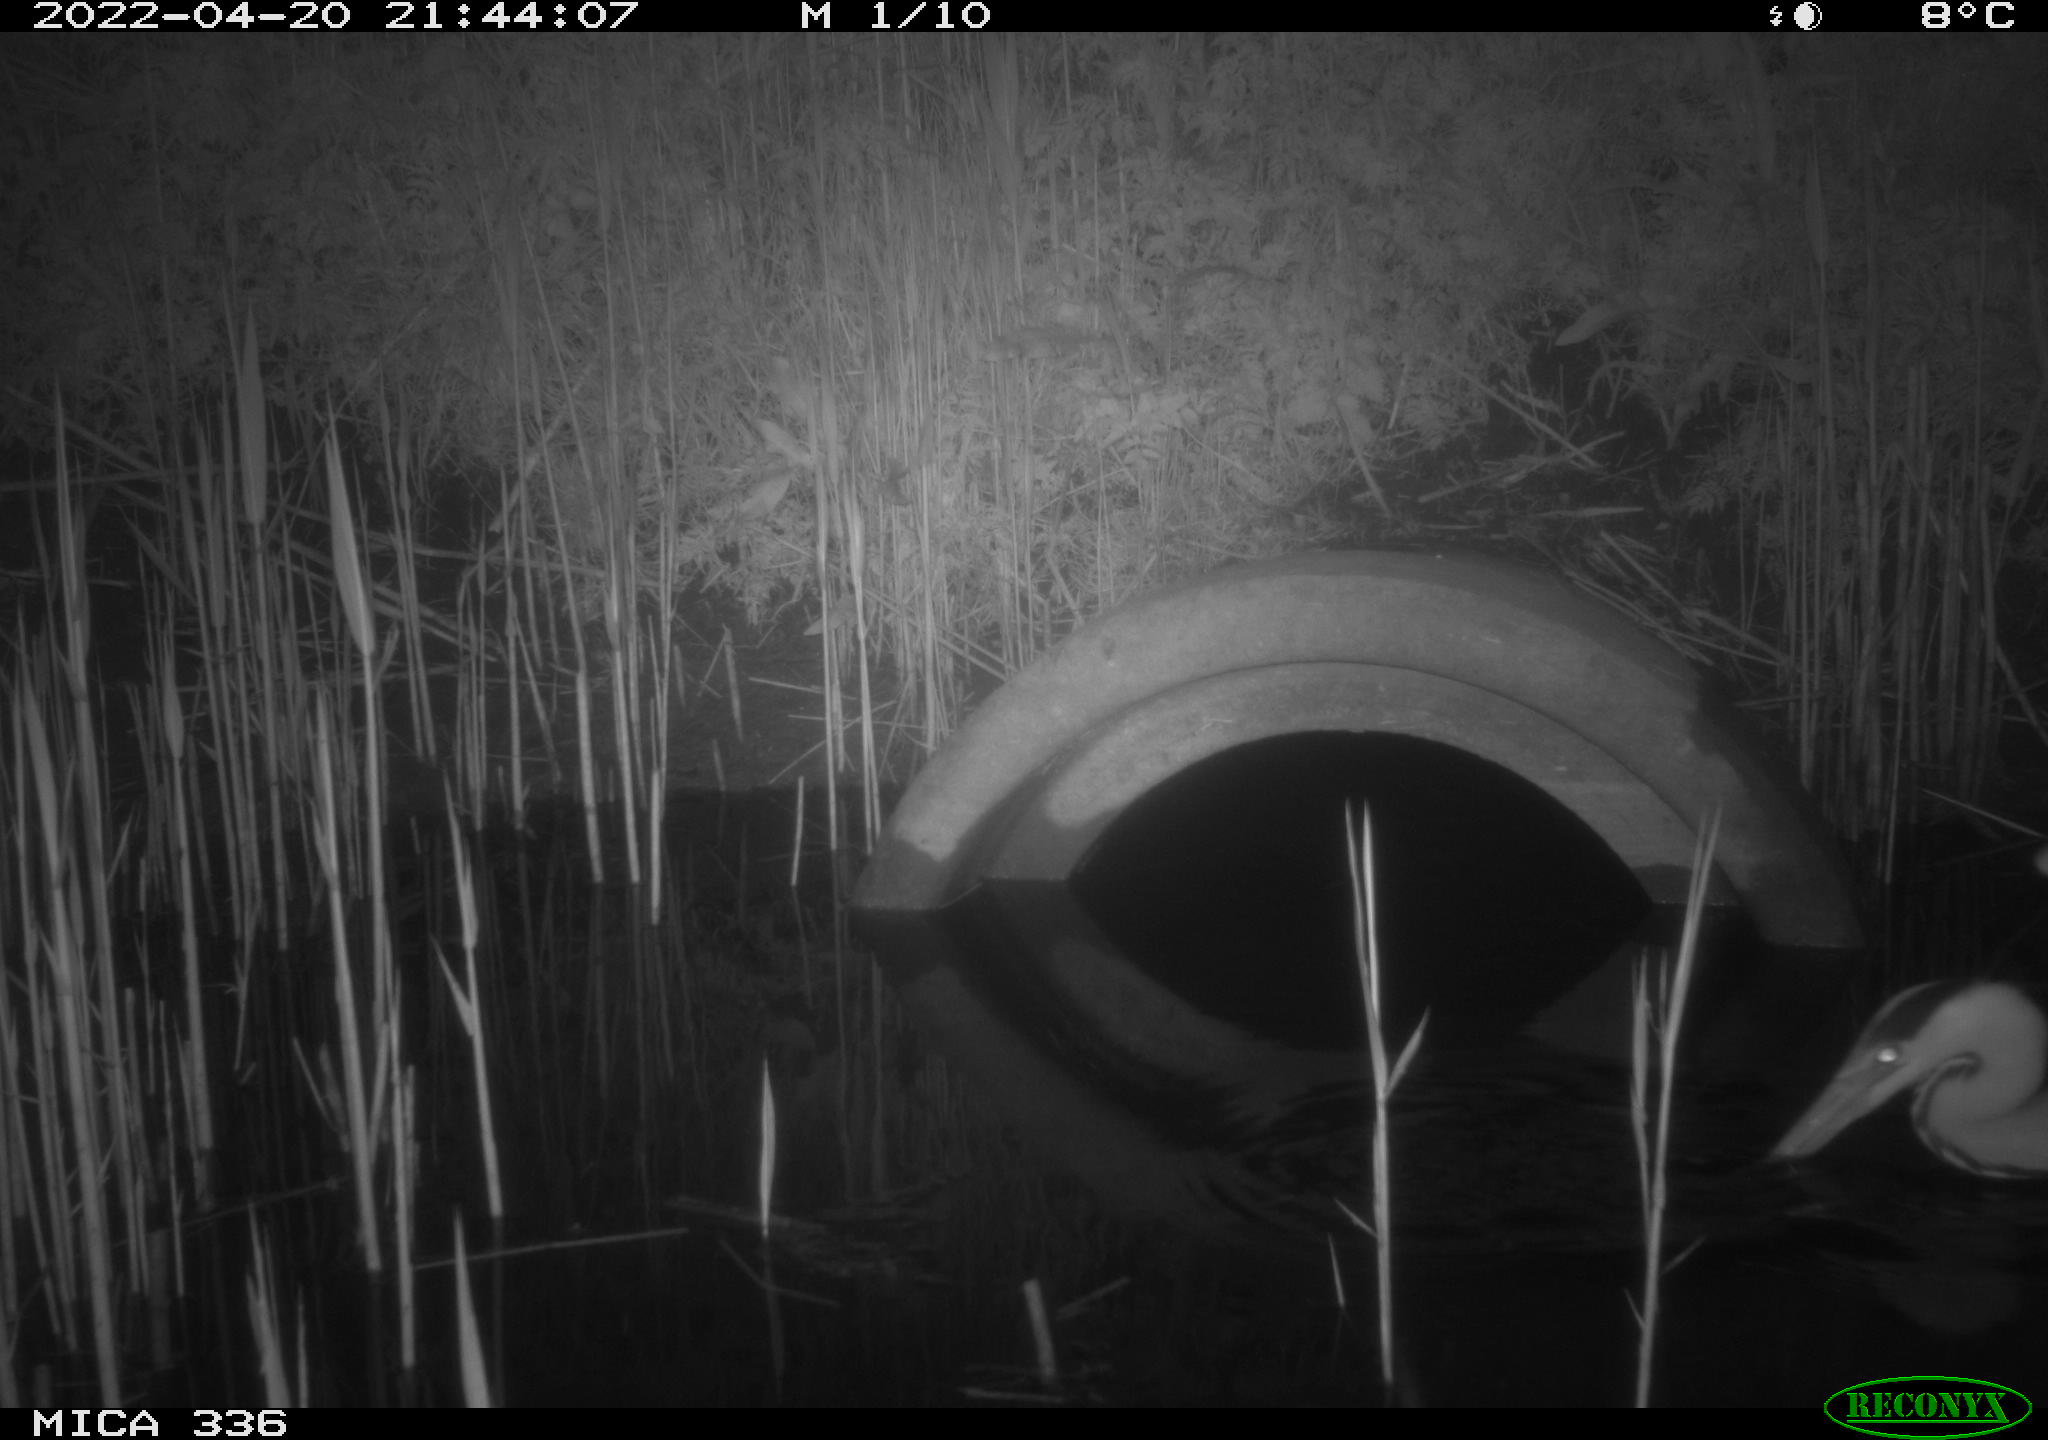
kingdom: Animalia
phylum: Chordata
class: Aves
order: Pelecaniformes
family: Ardeidae
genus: Ardea
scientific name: Ardea cinerea
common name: Grey heron
